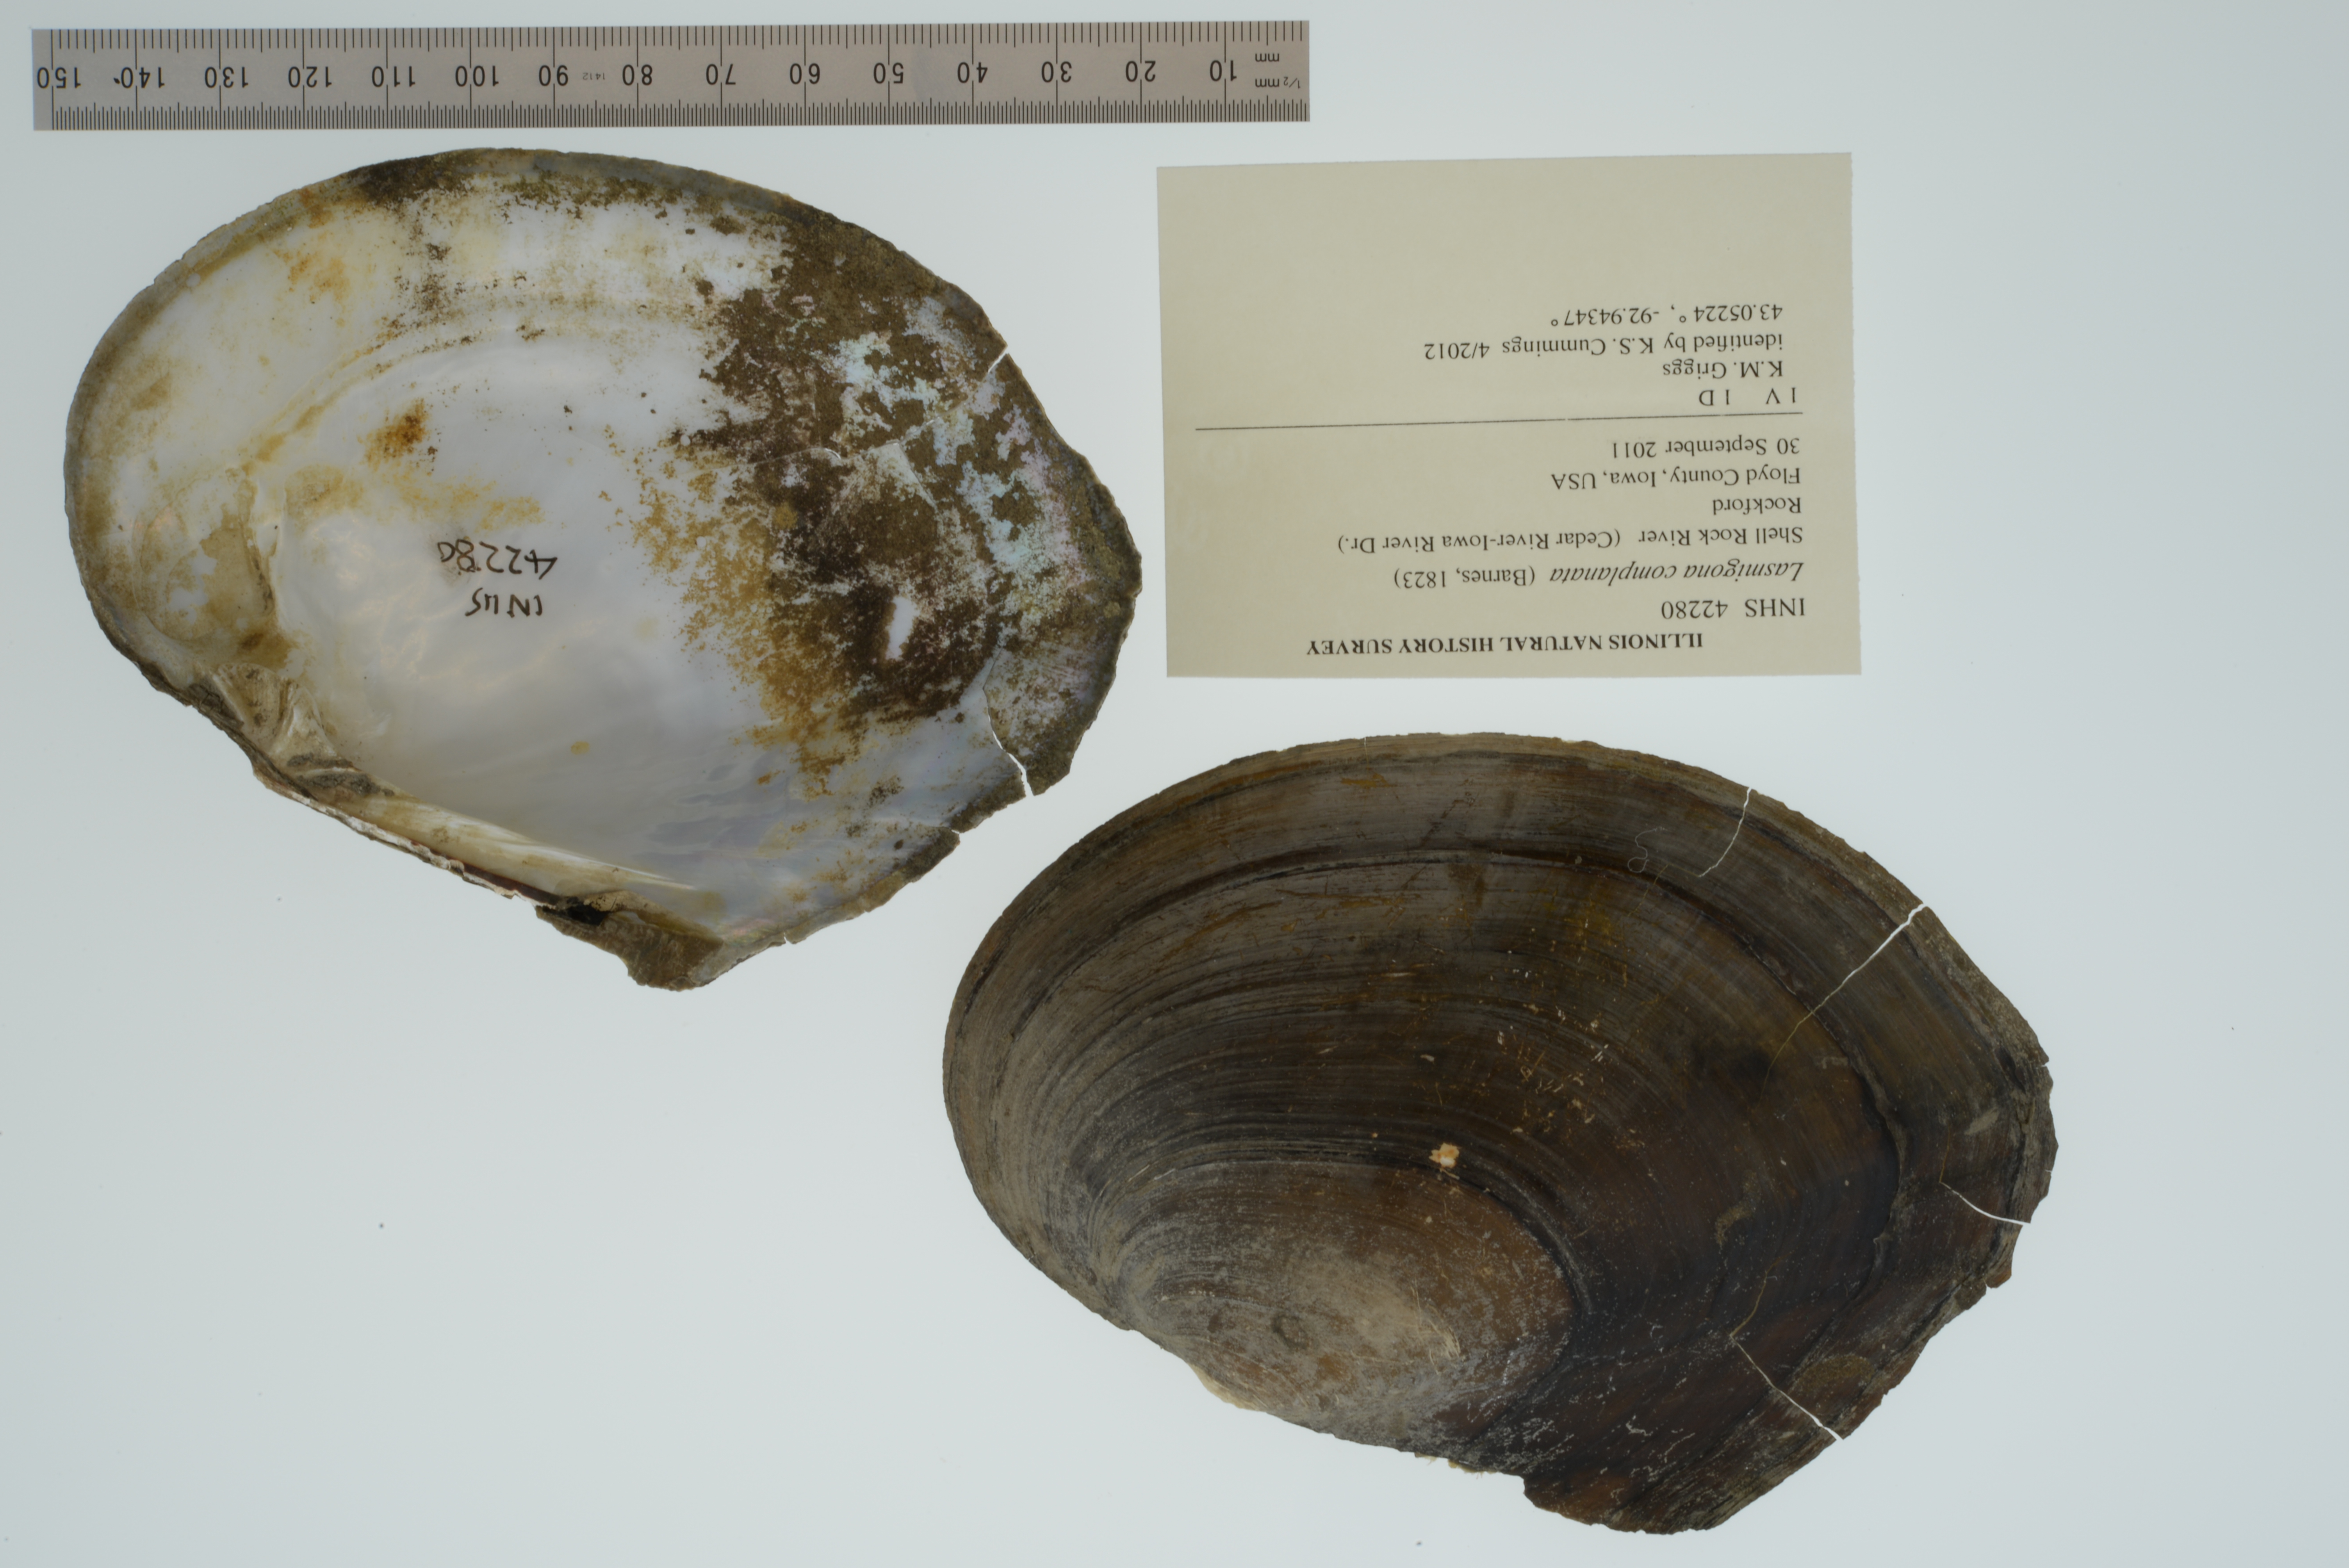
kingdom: Animalia
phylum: Mollusca
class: Bivalvia
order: Unionida
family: Unionidae
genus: Lasmigona
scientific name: Lasmigona complanata
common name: White heelsplitter
